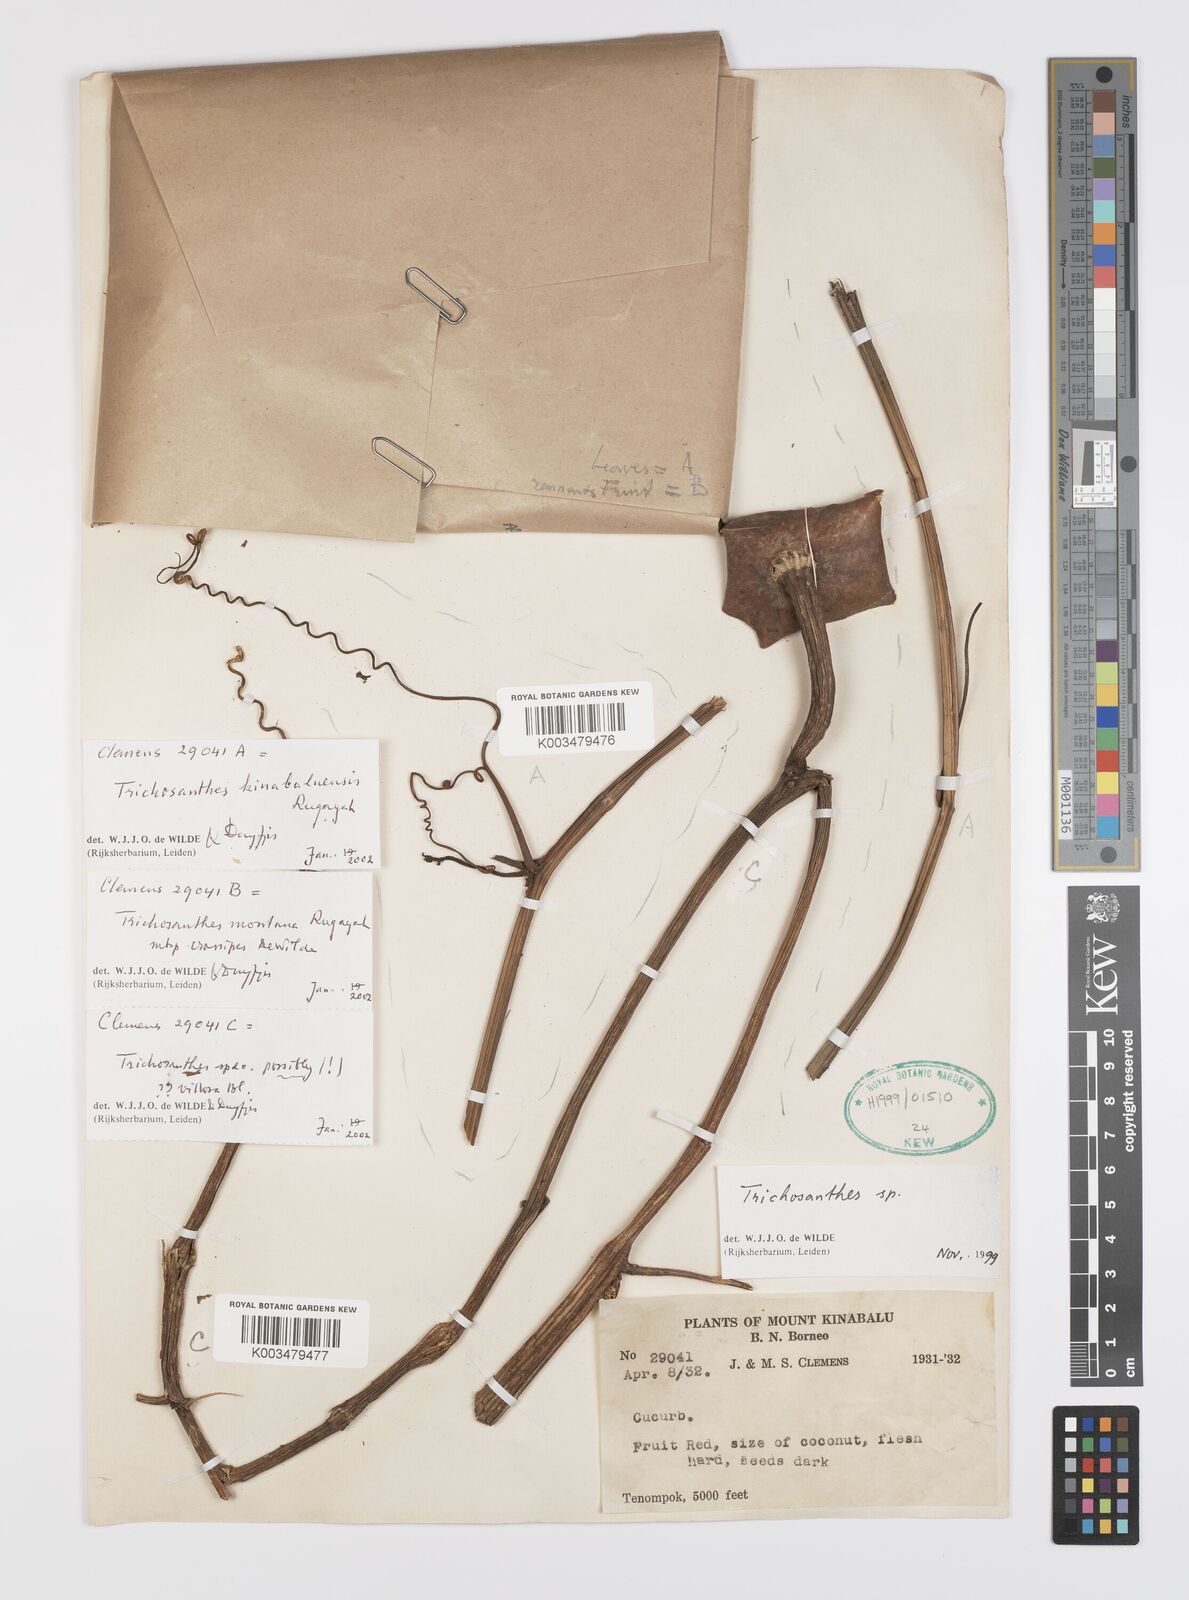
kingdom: Plantae
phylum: Tracheophyta
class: Magnoliopsida
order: Cucurbitales
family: Cucurbitaceae
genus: Trichosanthes
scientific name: Trichosanthes kinabaluensis
